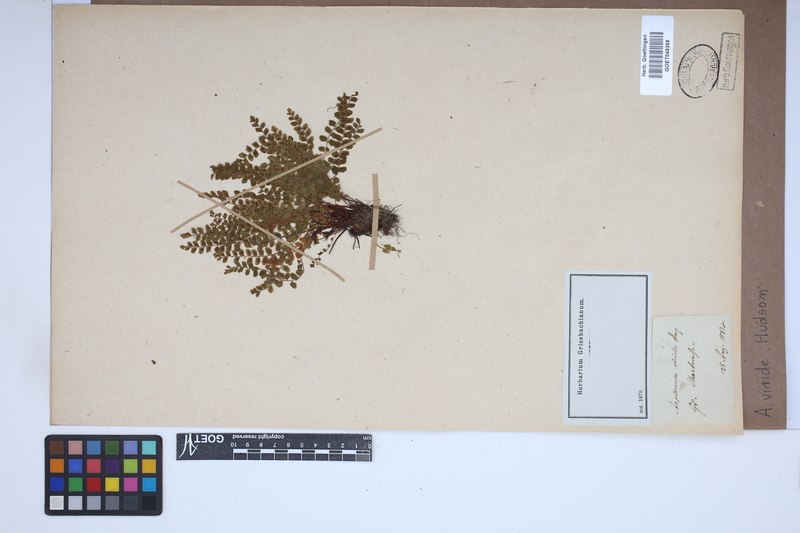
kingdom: Plantae
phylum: Tracheophyta
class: Polypodiopsida
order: Polypodiales
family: Aspleniaceae
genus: Asplenium
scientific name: Asplenium viride
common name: Green spleenwort
